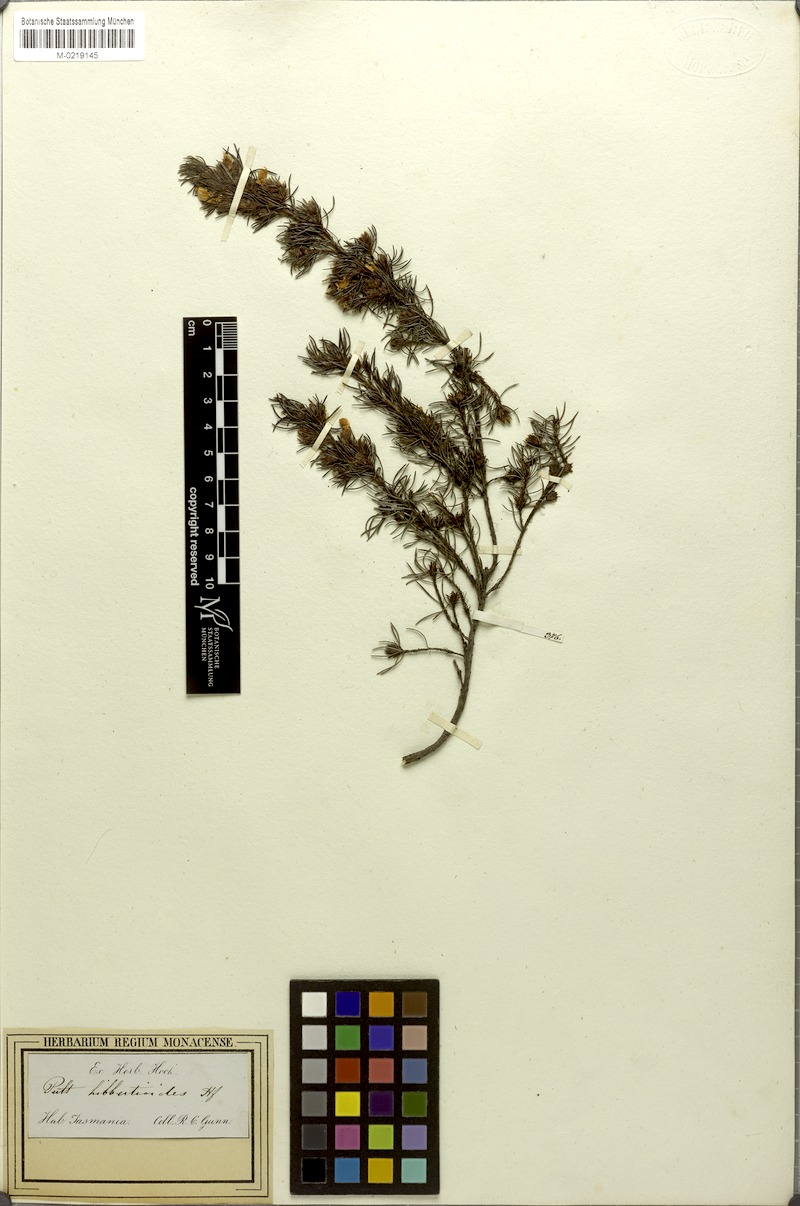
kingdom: Plantae
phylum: Tracheophyta
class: Magnoliopsida
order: Fabales
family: Fabaceae
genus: Pultenaea
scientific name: Pultenaea mollis
